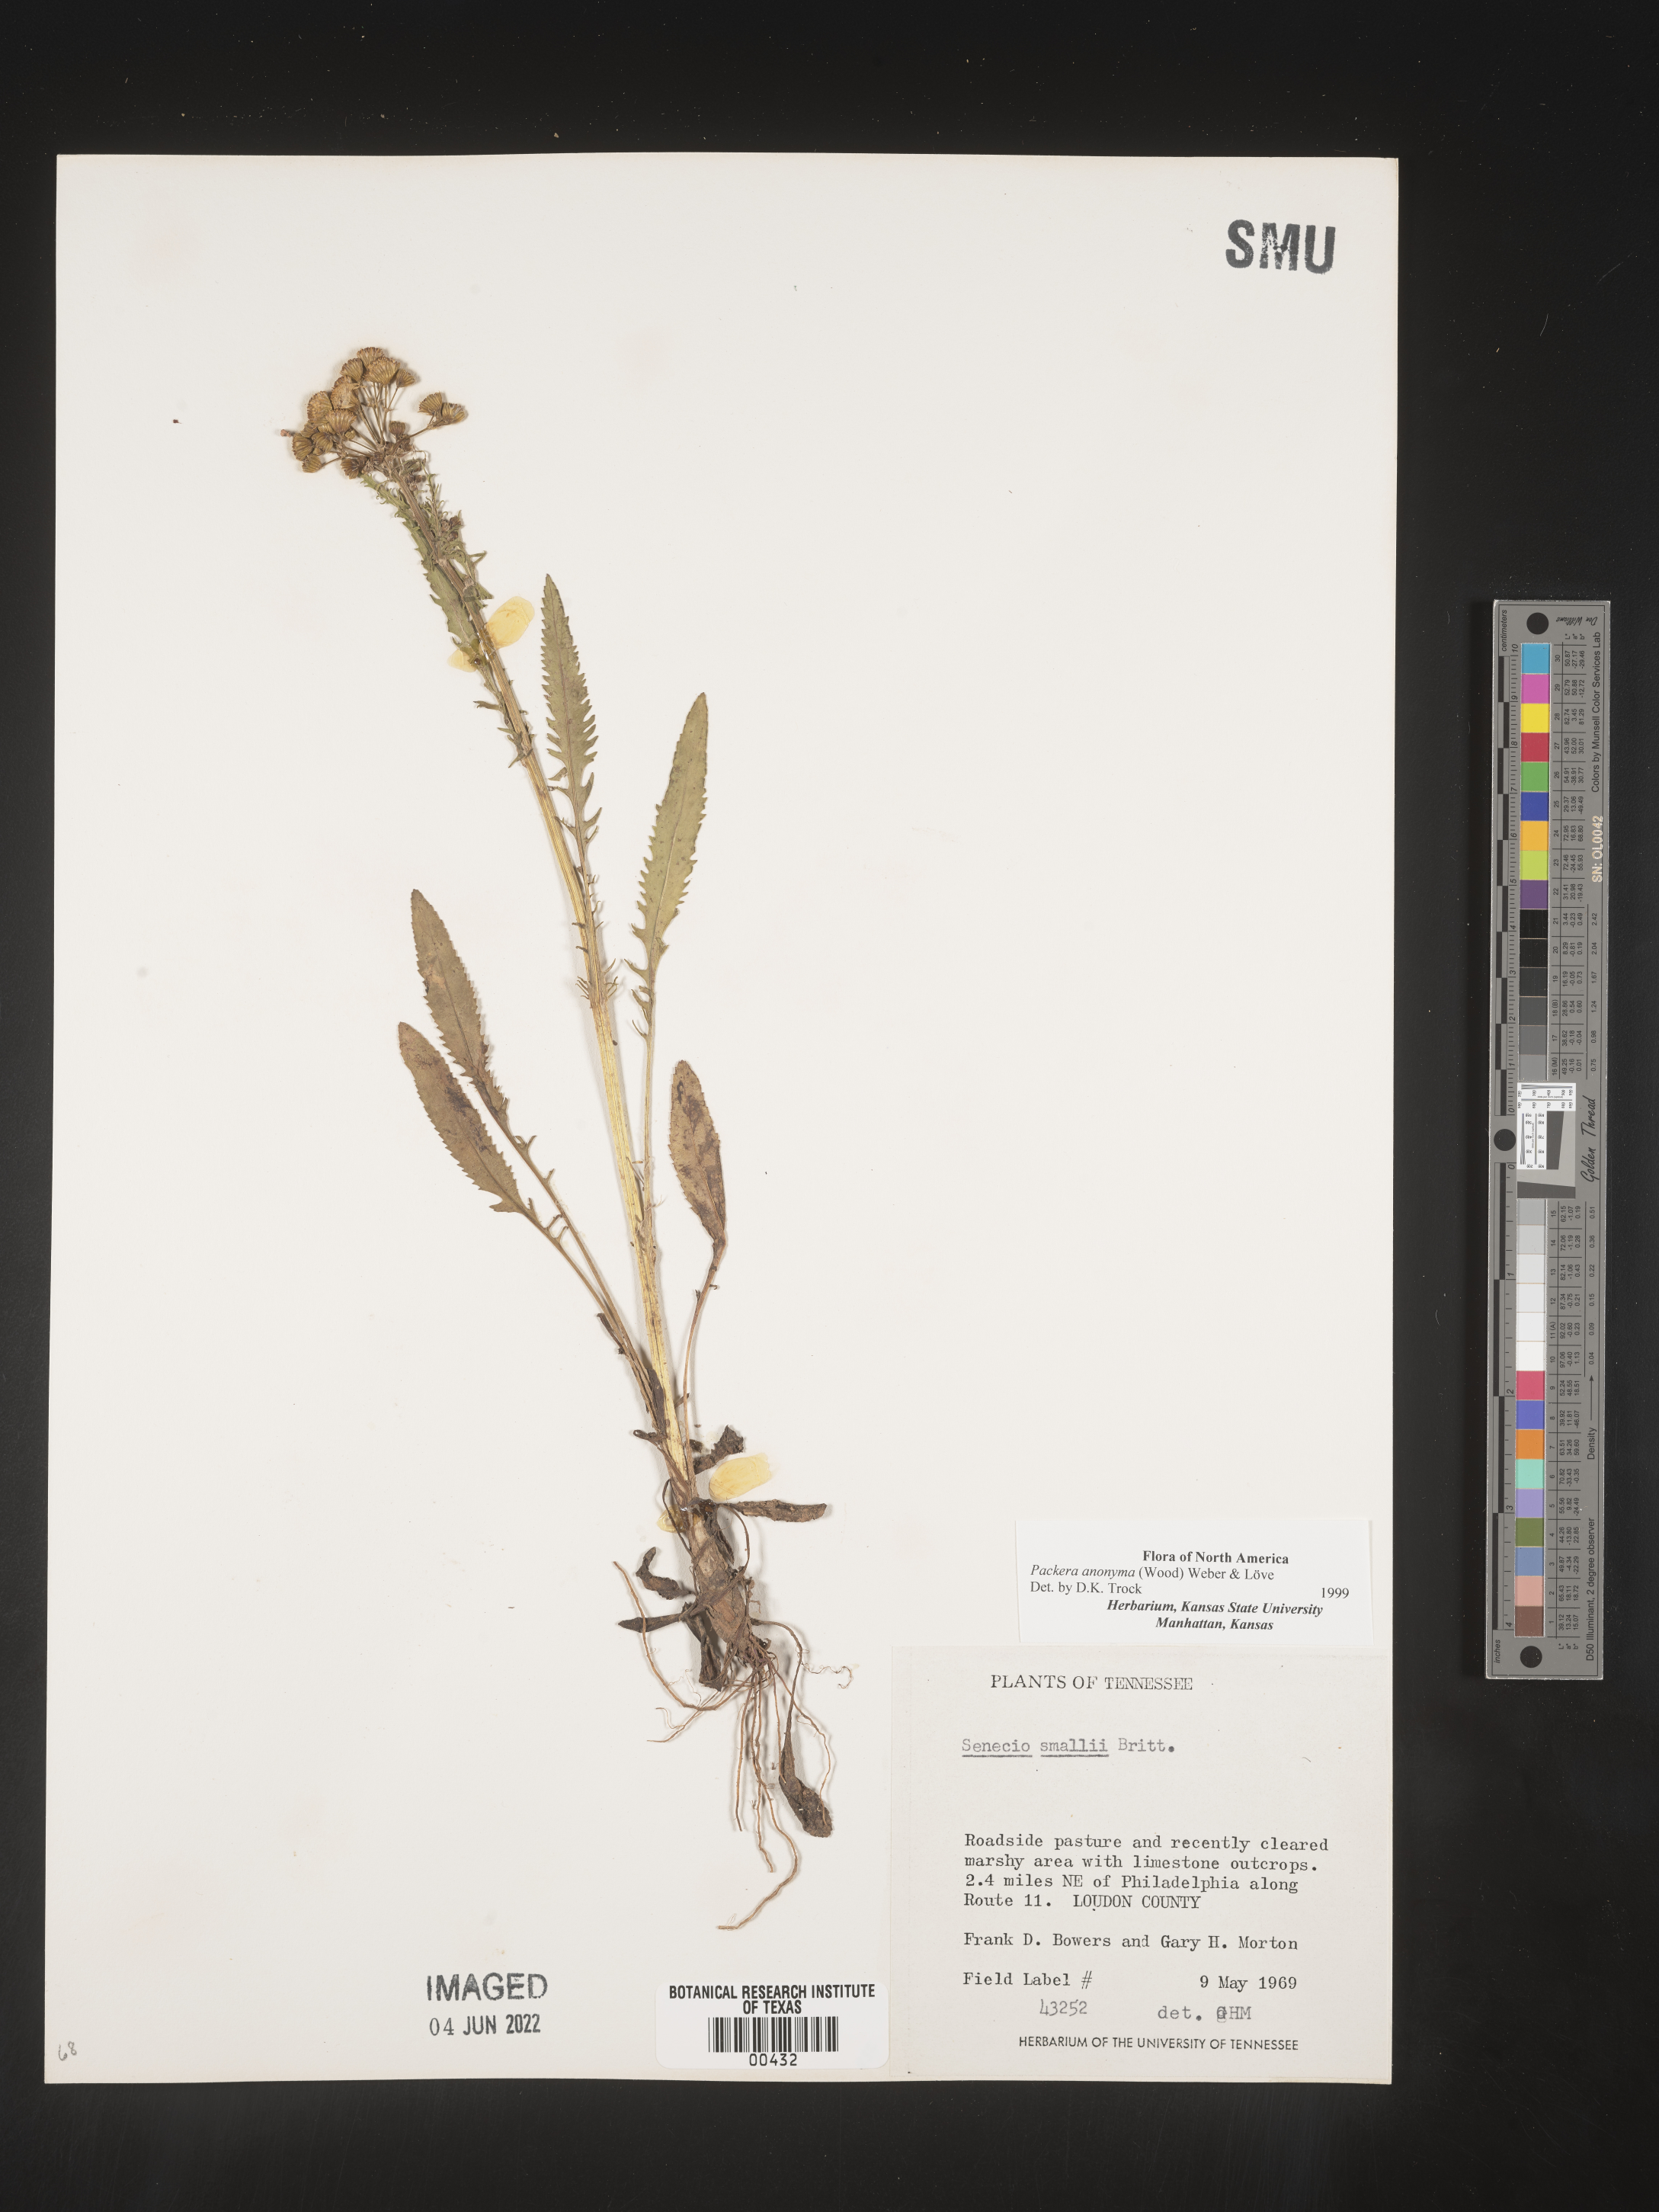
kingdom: Plantae
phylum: Tracheophyta
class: Magnoliopsida
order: Asterales
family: Asteraceae
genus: Packera
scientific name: Packera anonyma
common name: Small ragwort
